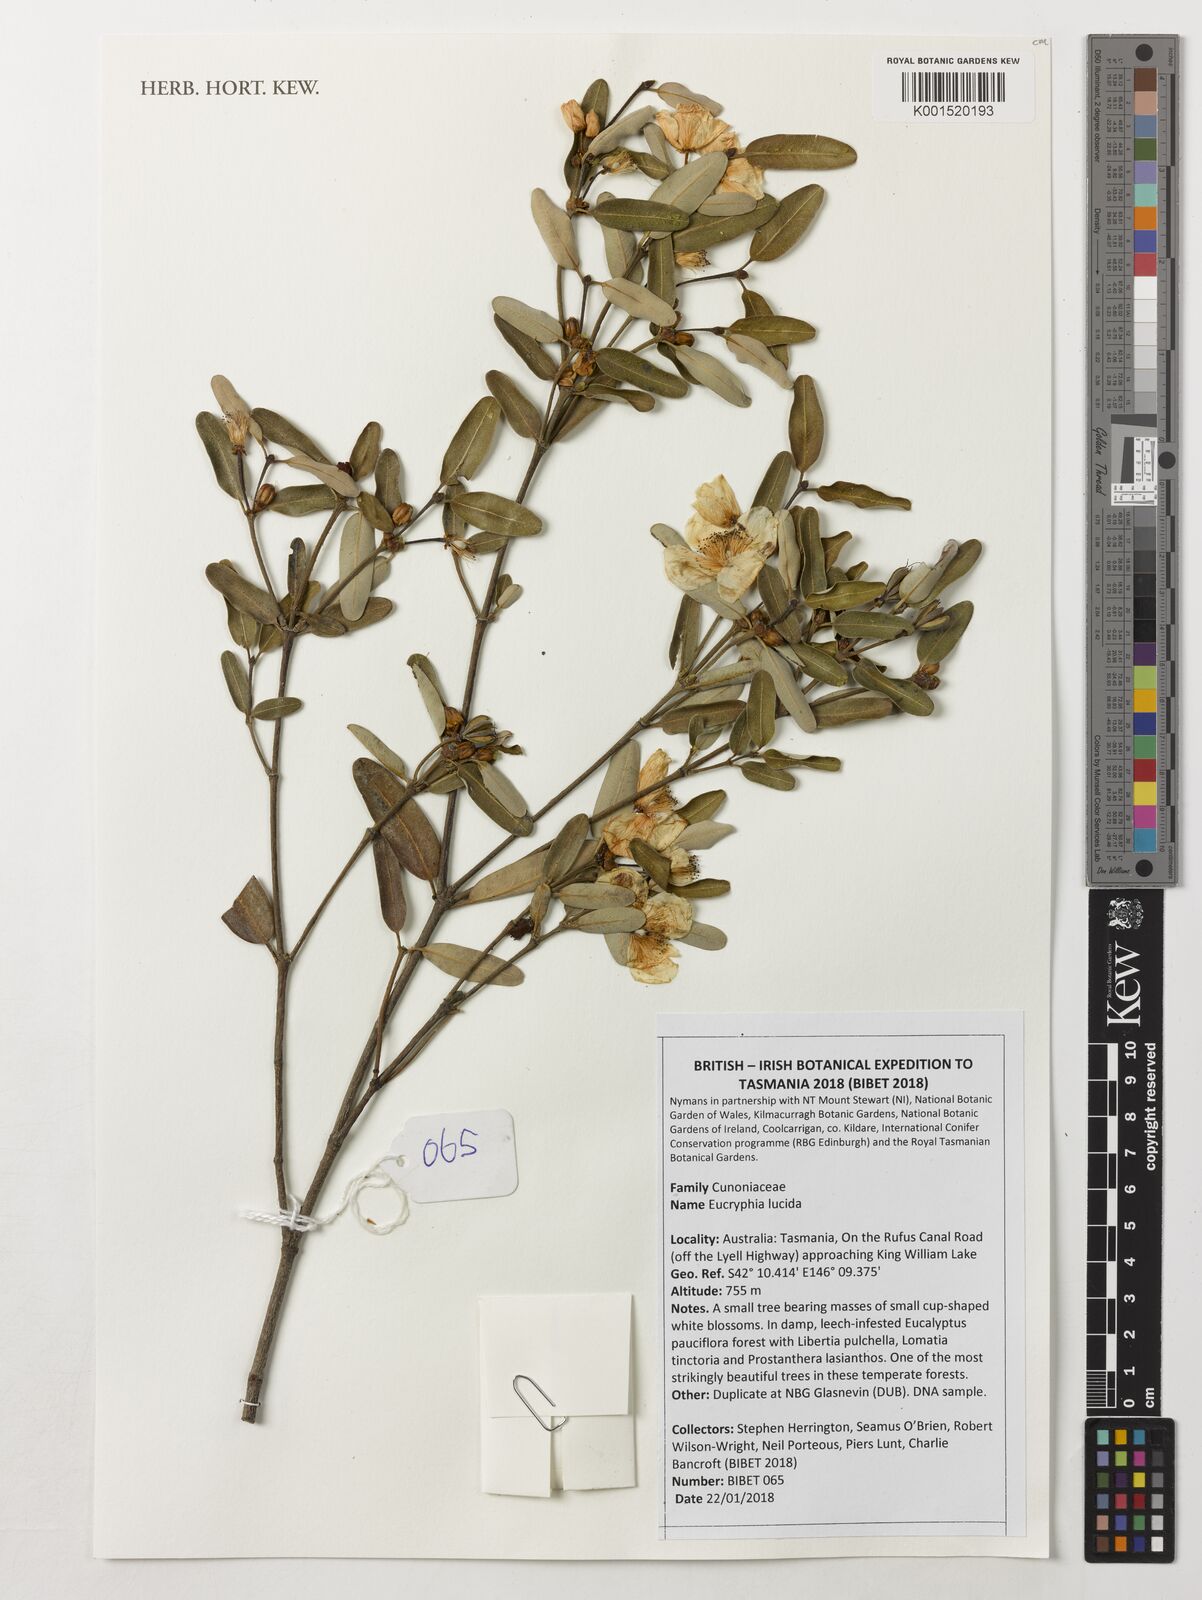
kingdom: Plantae
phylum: Tracheophyta
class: Magnoliopsida
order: Oxalidales
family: Cunoniaceae
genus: Eucryphia
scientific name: Eucryphia lucida
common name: Leatherwood
